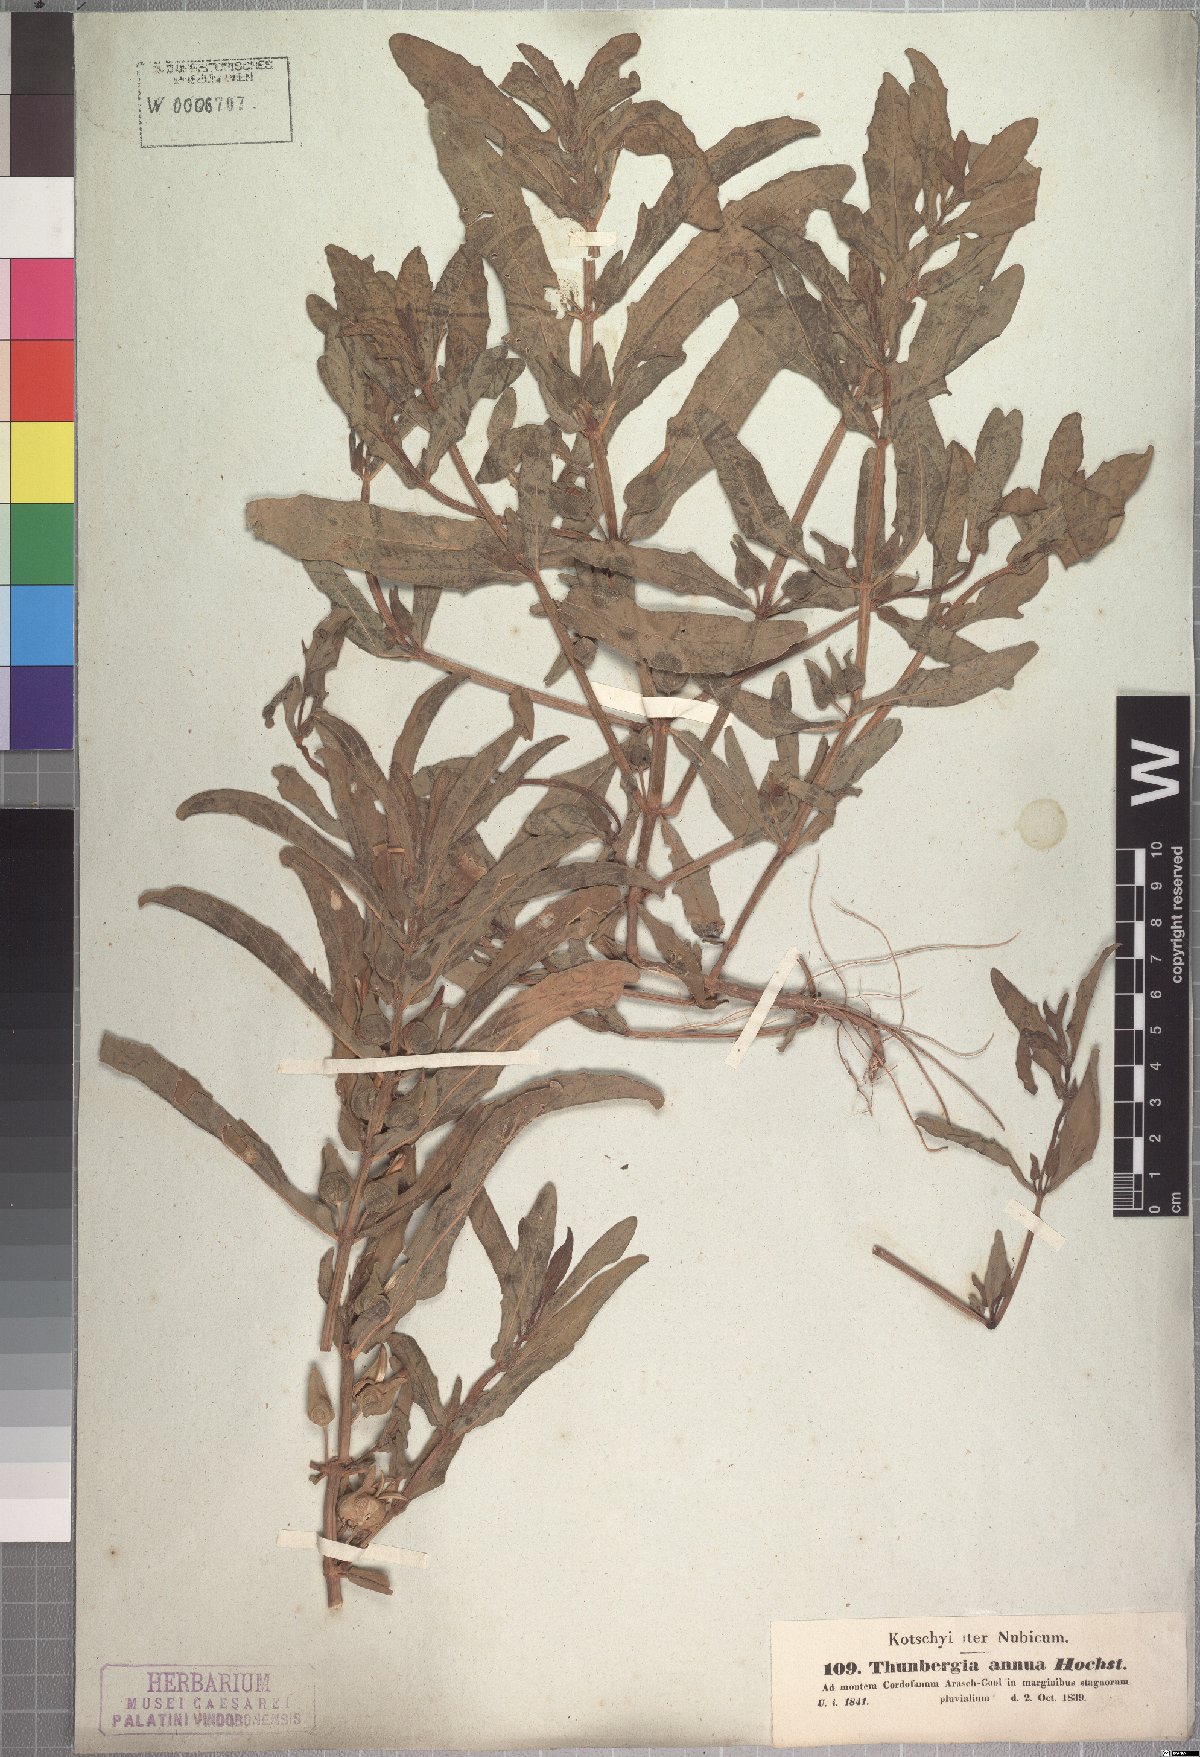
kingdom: Plantae
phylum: Tracheophyta
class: Magnoliopsida
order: Lamiales
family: Acanthaceae
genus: Thunbergia
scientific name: Thunbergia annua
